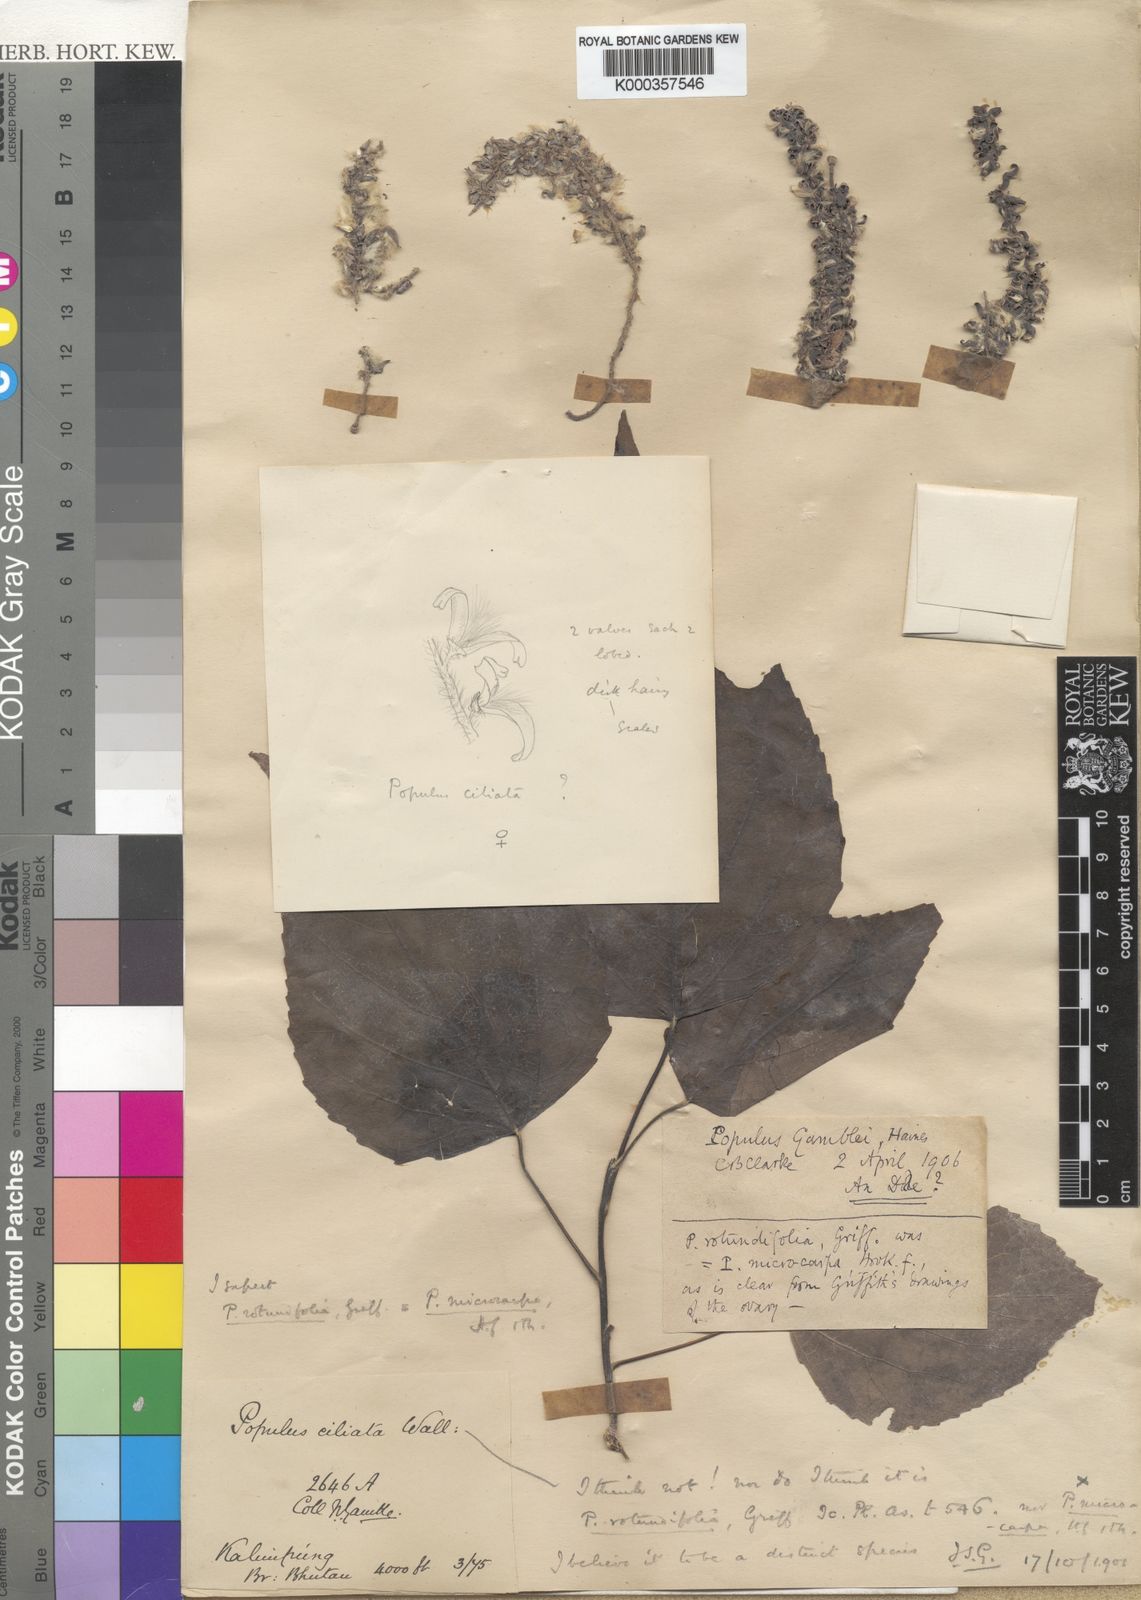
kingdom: Plantae
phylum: Tracheophyta
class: Magnoliopsida
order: Malpighiales
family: Salicaceae
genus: Populus
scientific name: Populus
